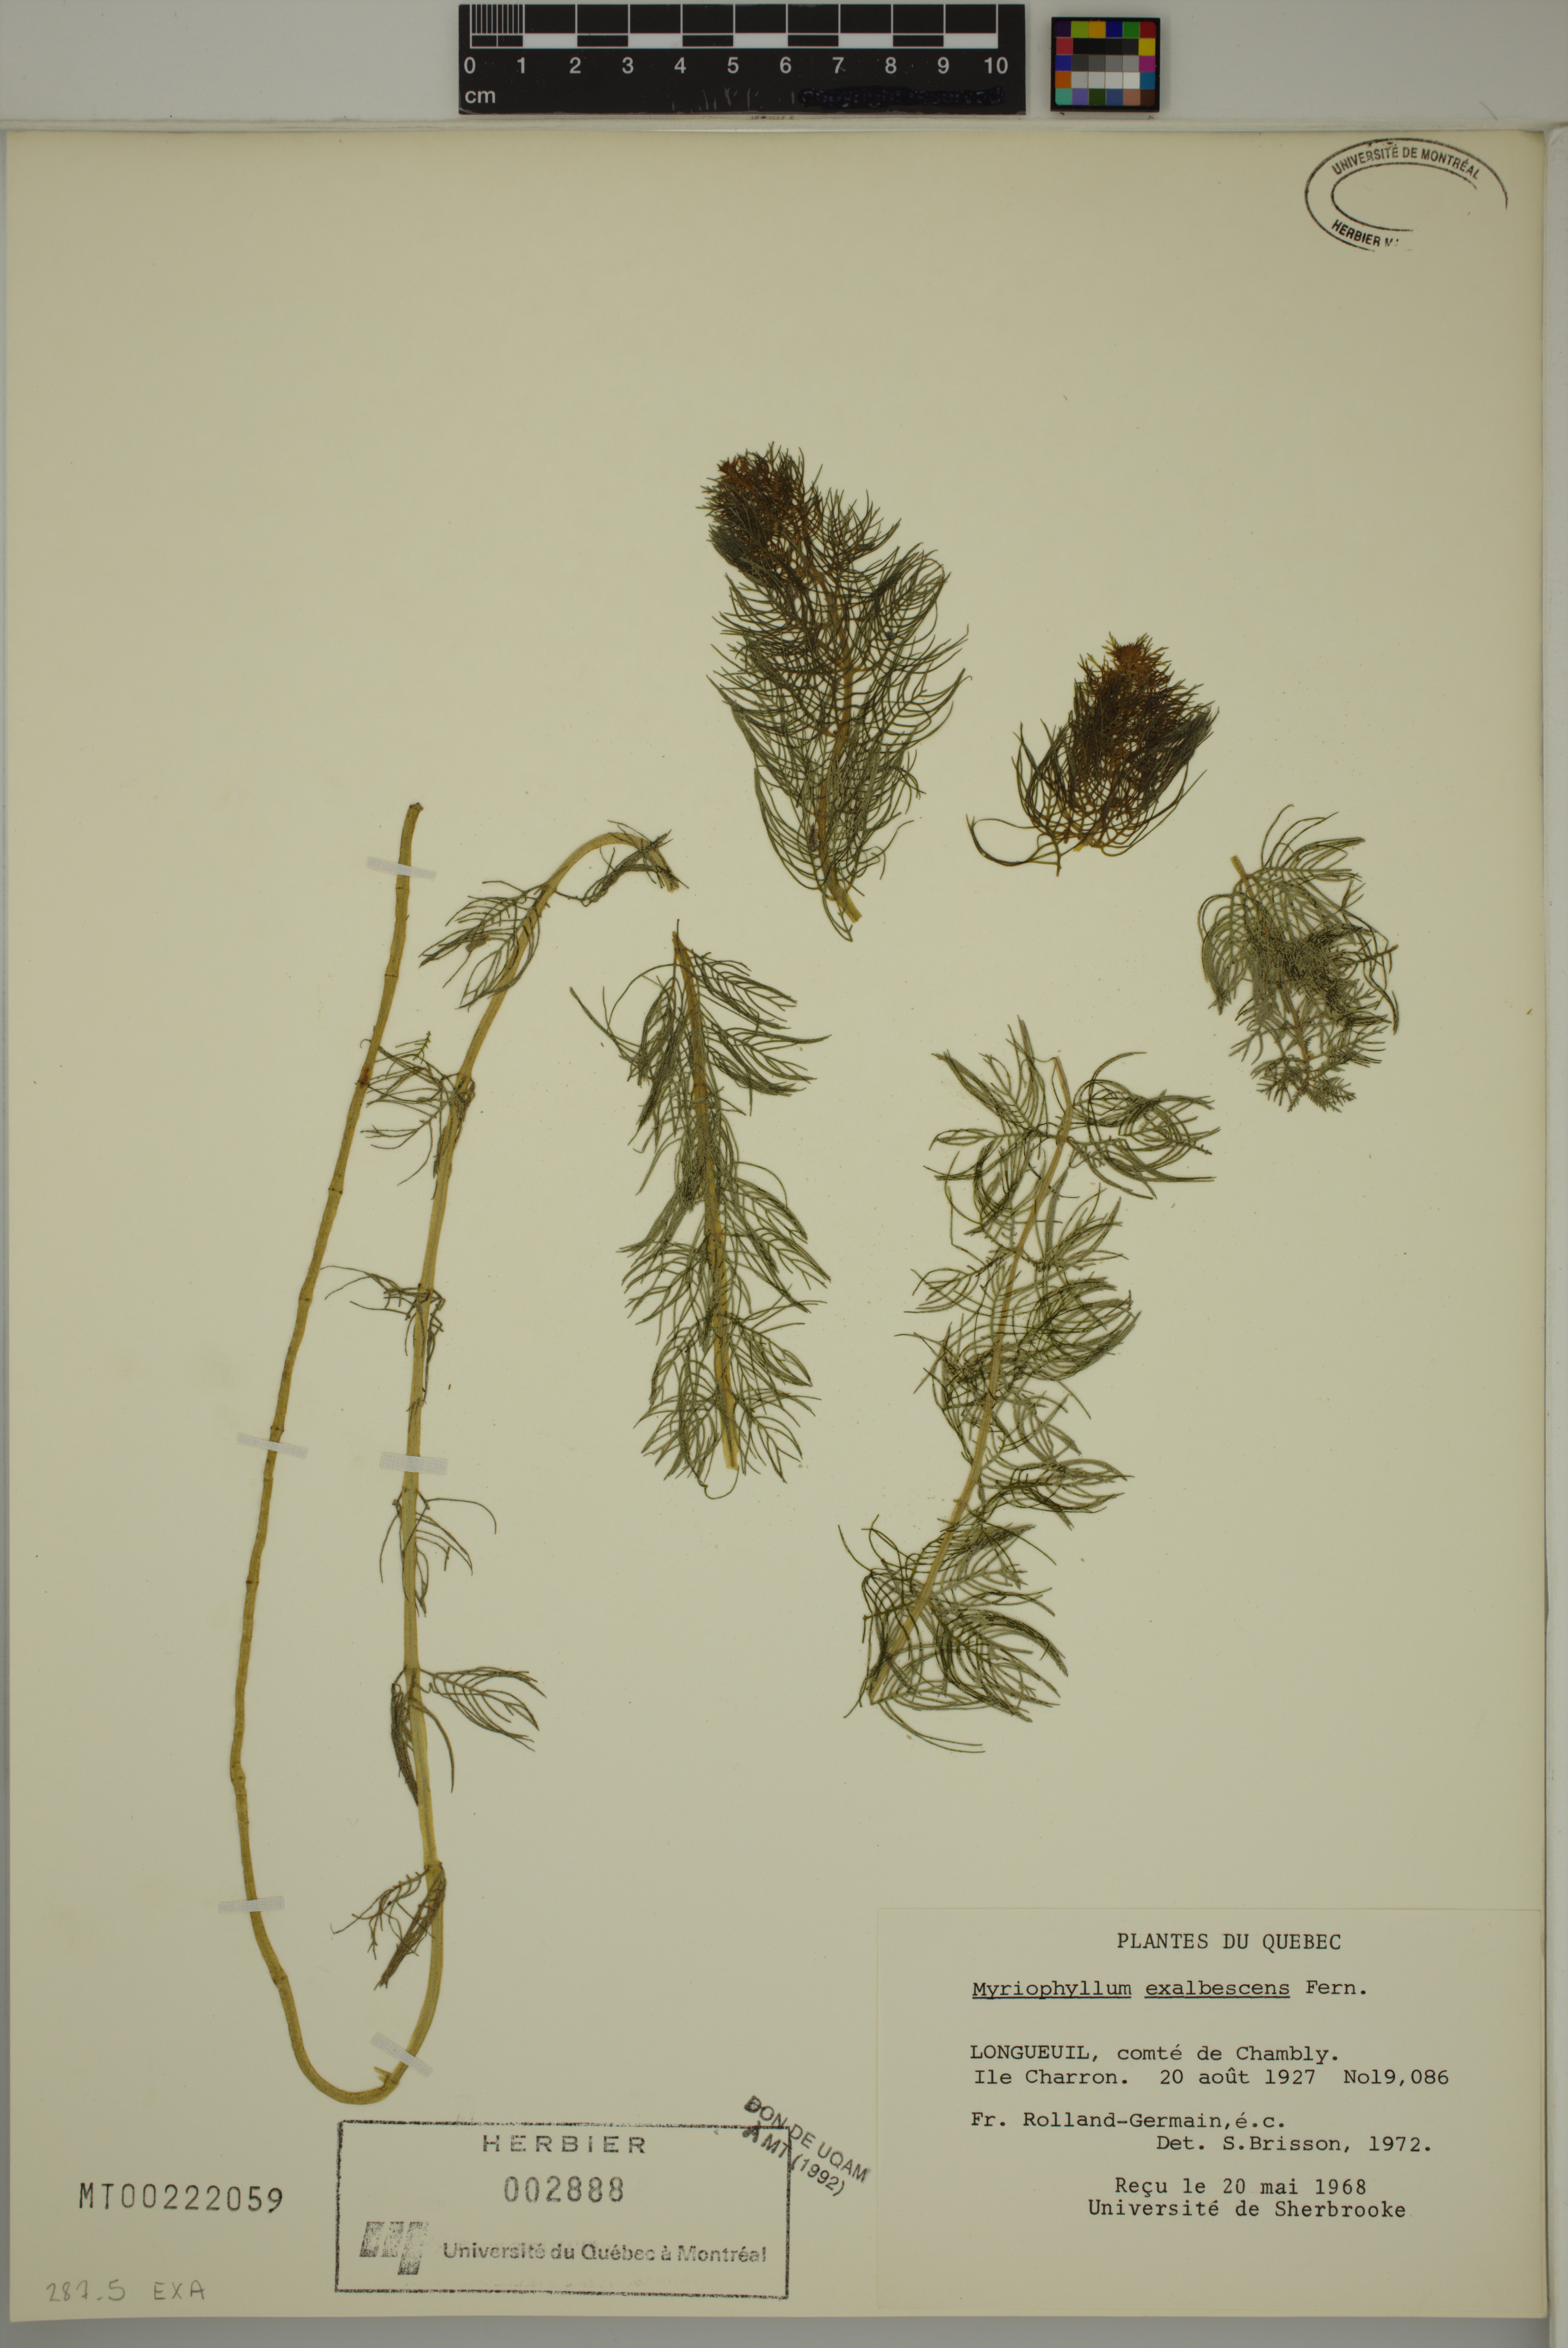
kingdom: Plantae
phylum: Tracheophyta
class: Magnoliopsida
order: Saxifragales
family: Haloragaceae
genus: Myriophyllum
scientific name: Myriophyllum sibiricum
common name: Siberian water-milfoil
